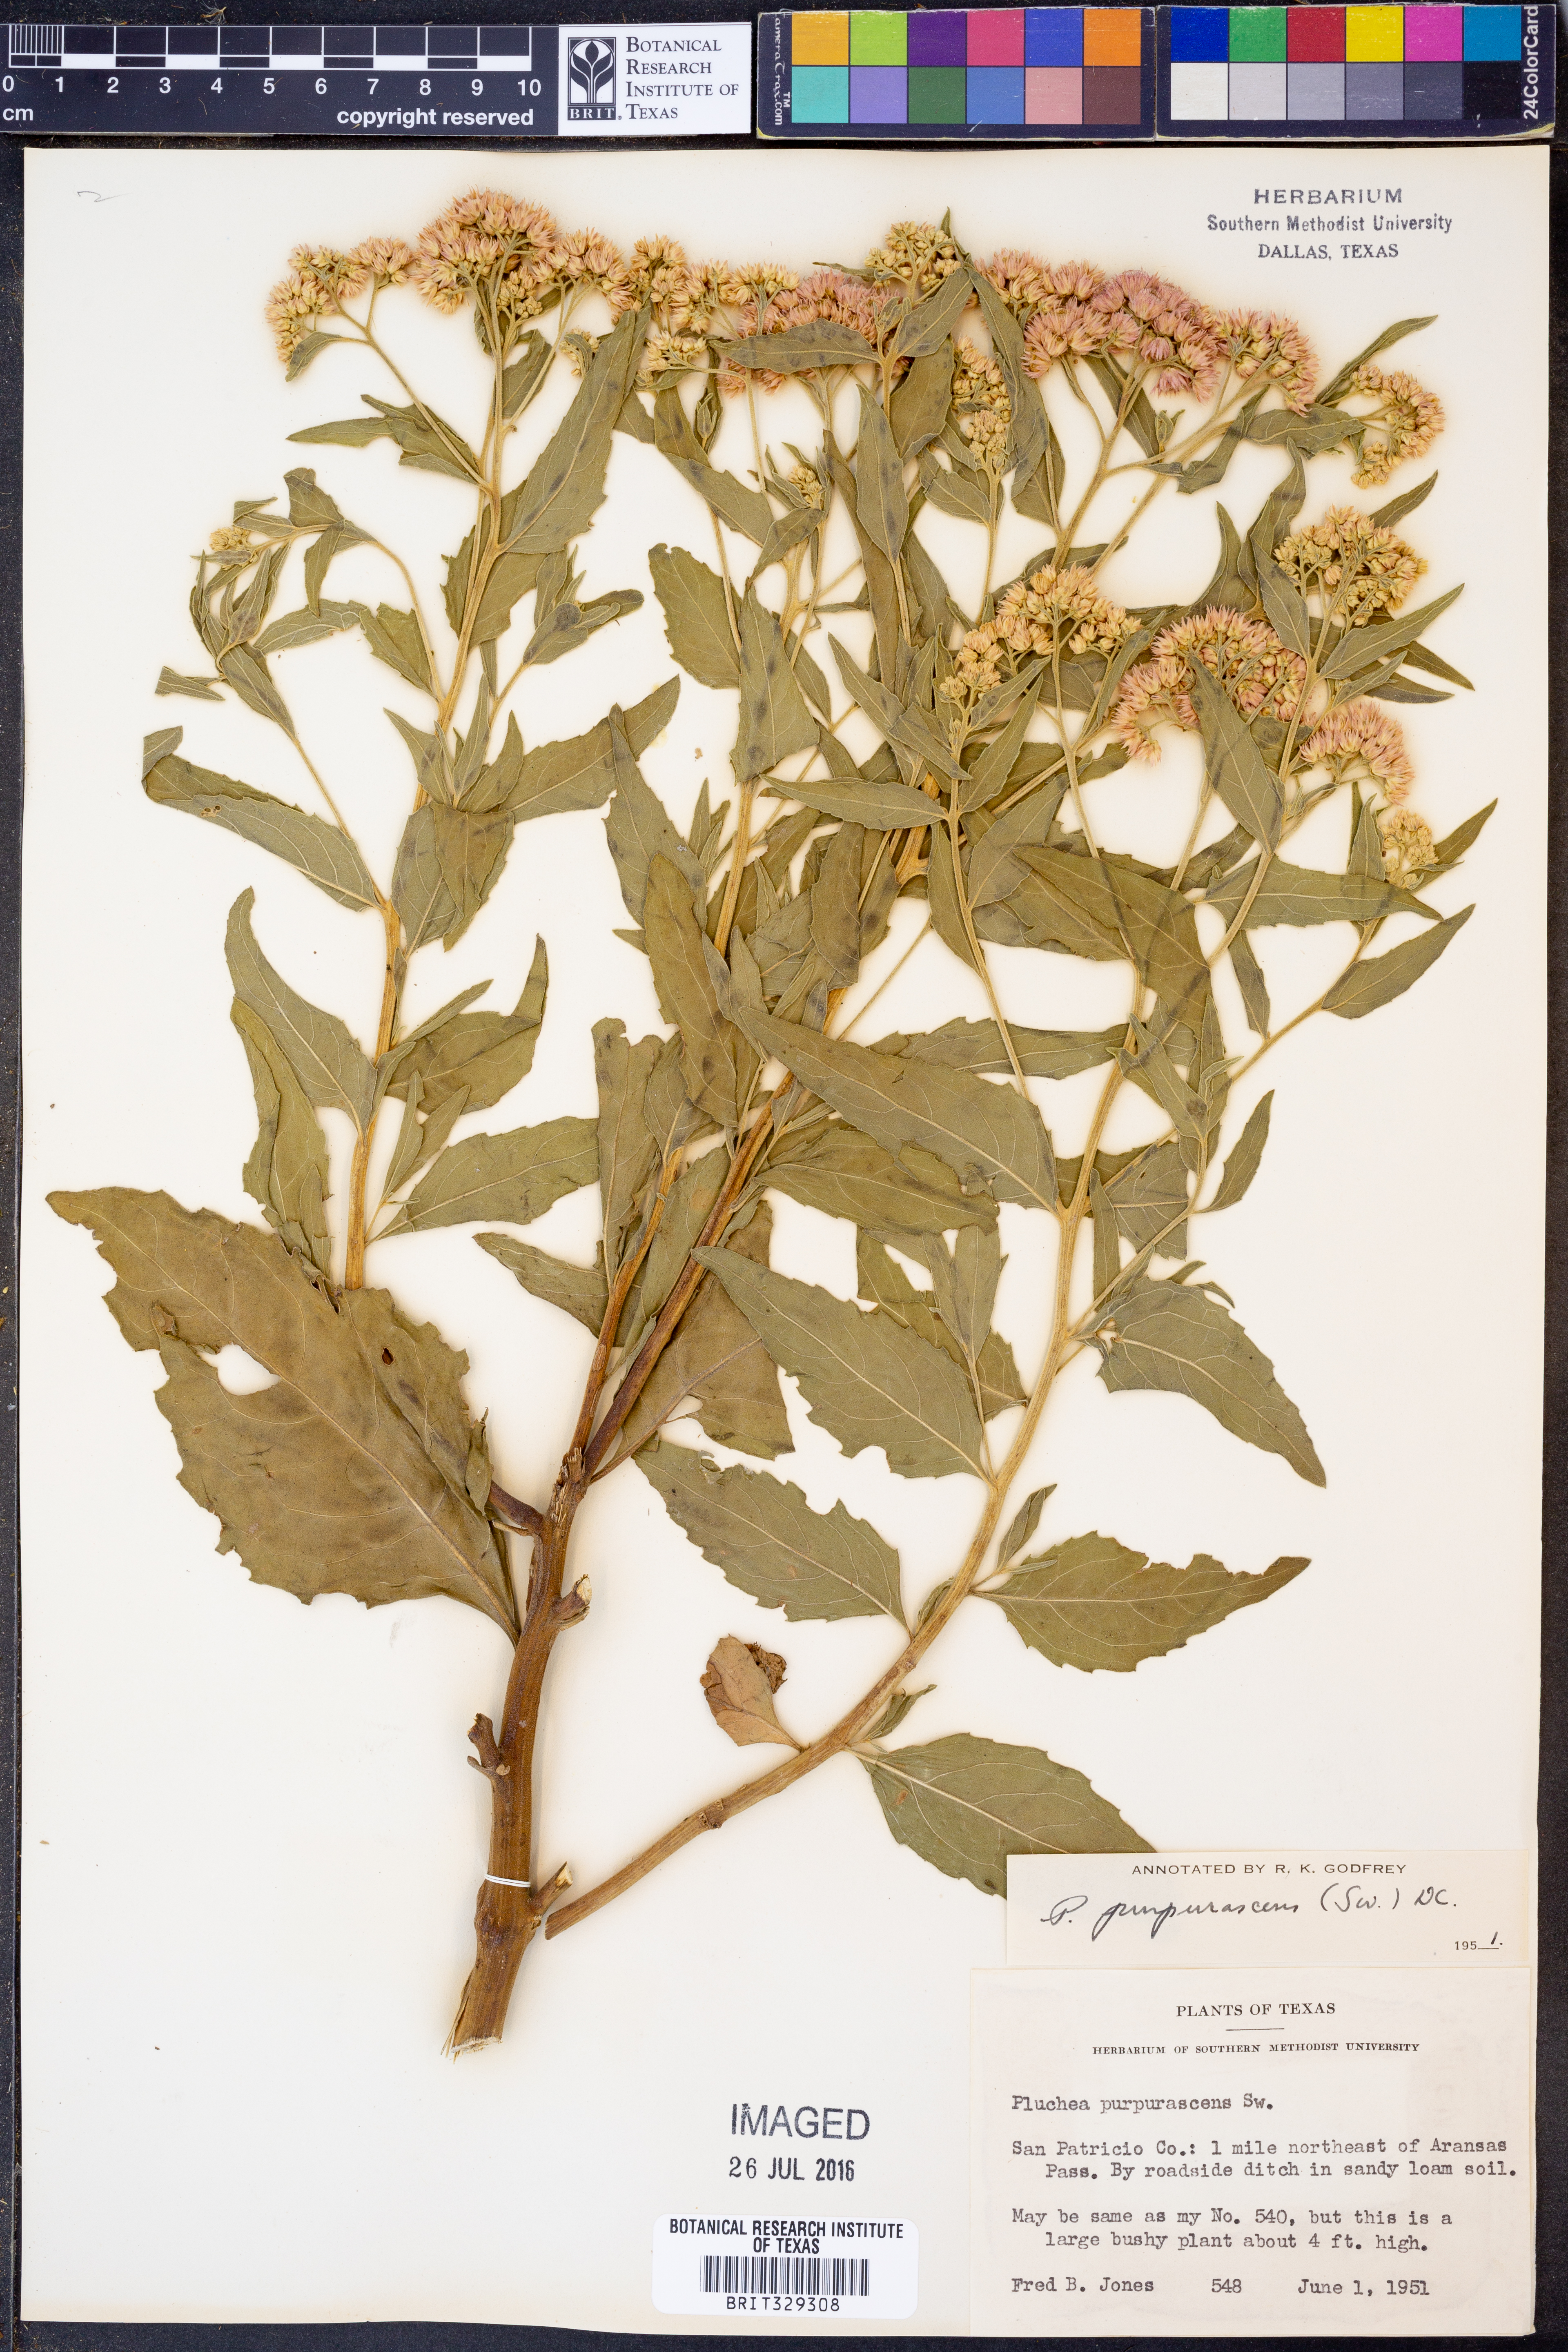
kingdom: Plantae
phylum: Tracheophyta
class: Magnoliopsida
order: Asterales
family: Asteraceae
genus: Pluchea
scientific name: Pluchea odorata
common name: Saltmarsh fleabane
